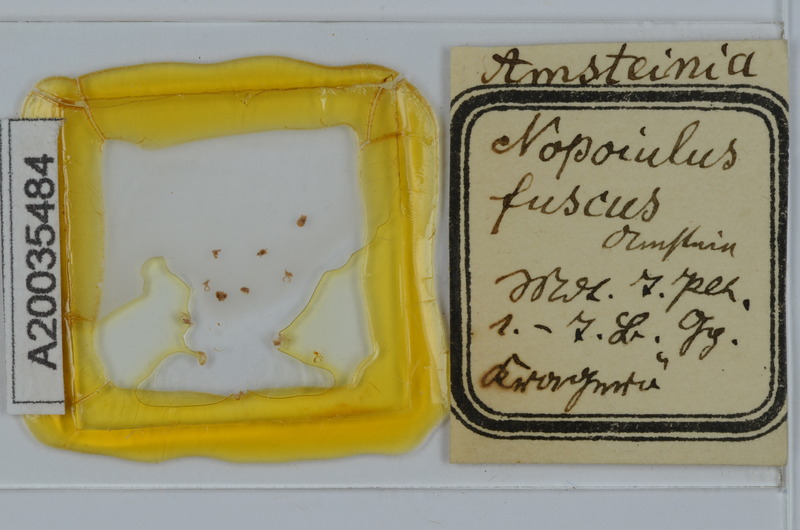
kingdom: Animalia
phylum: Arthropoda
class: Diplopoda
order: Julida
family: Blaniulidae
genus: Nopoiulus
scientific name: Nopoiulus
